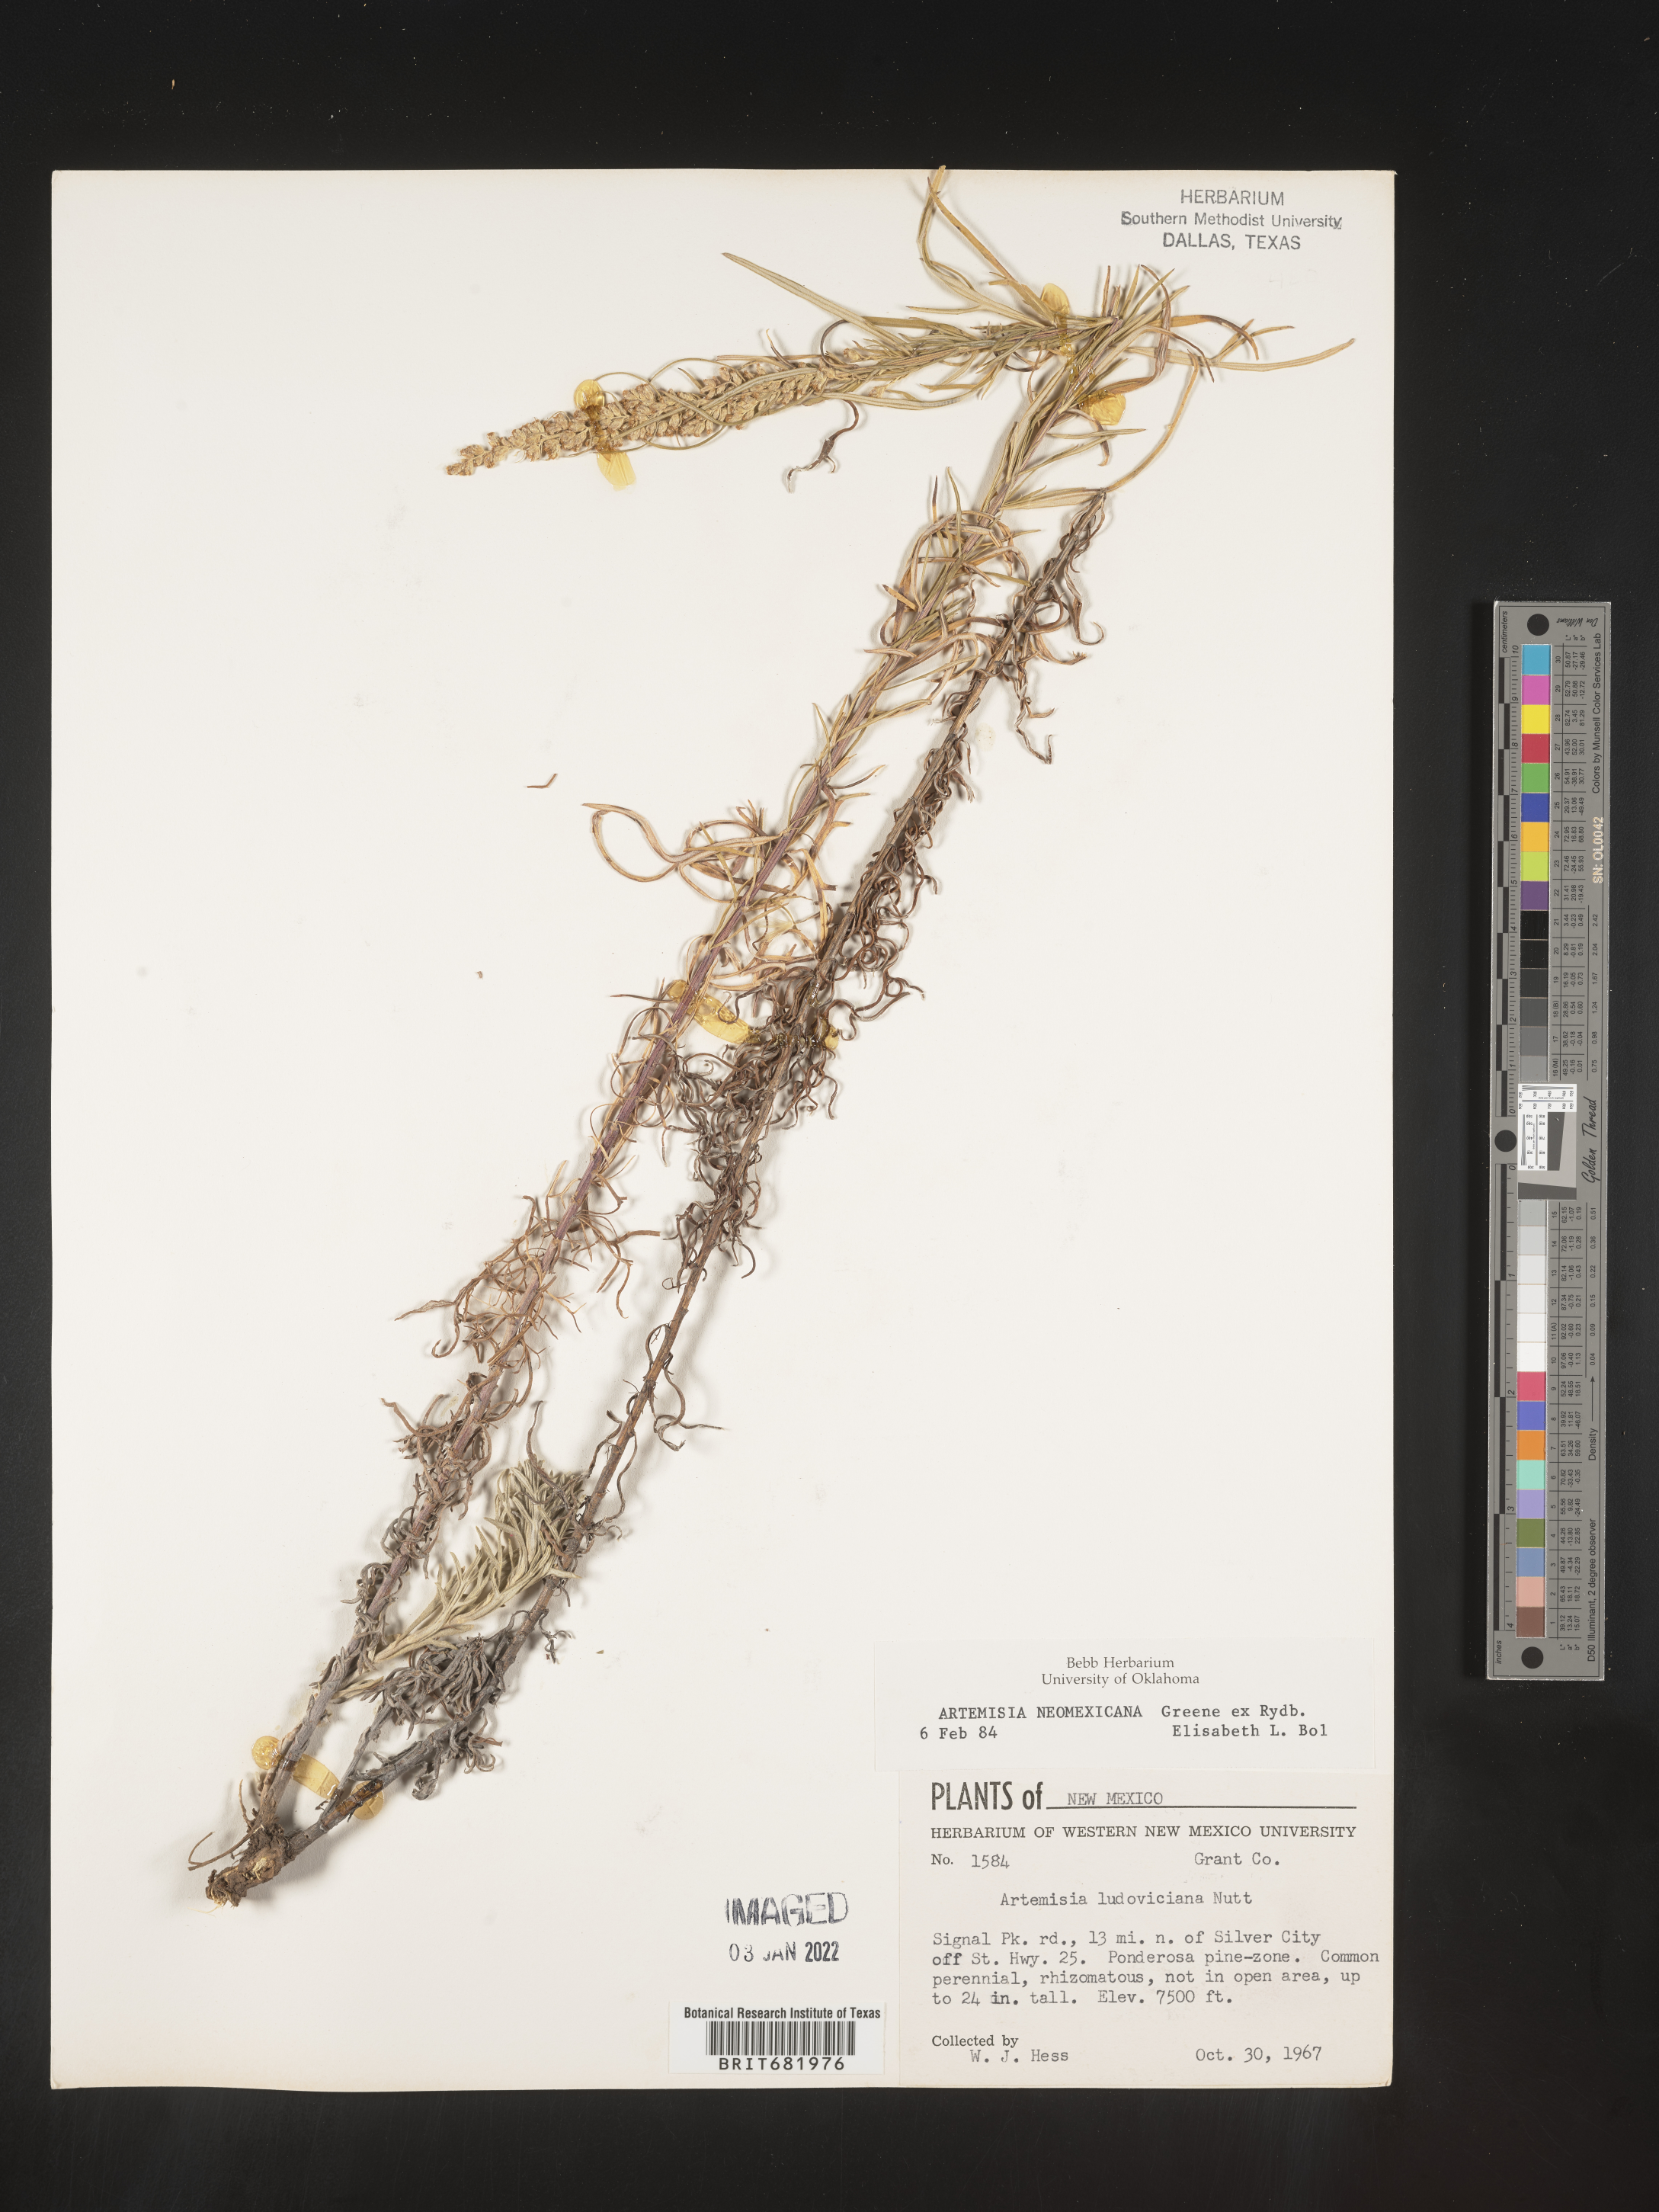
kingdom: Plantae
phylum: Tracheophyta
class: Magnoliopsida
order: Asterales
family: Asteraceae
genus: Artemisia
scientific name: Artemisia ludoviciana
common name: Western mugwort
